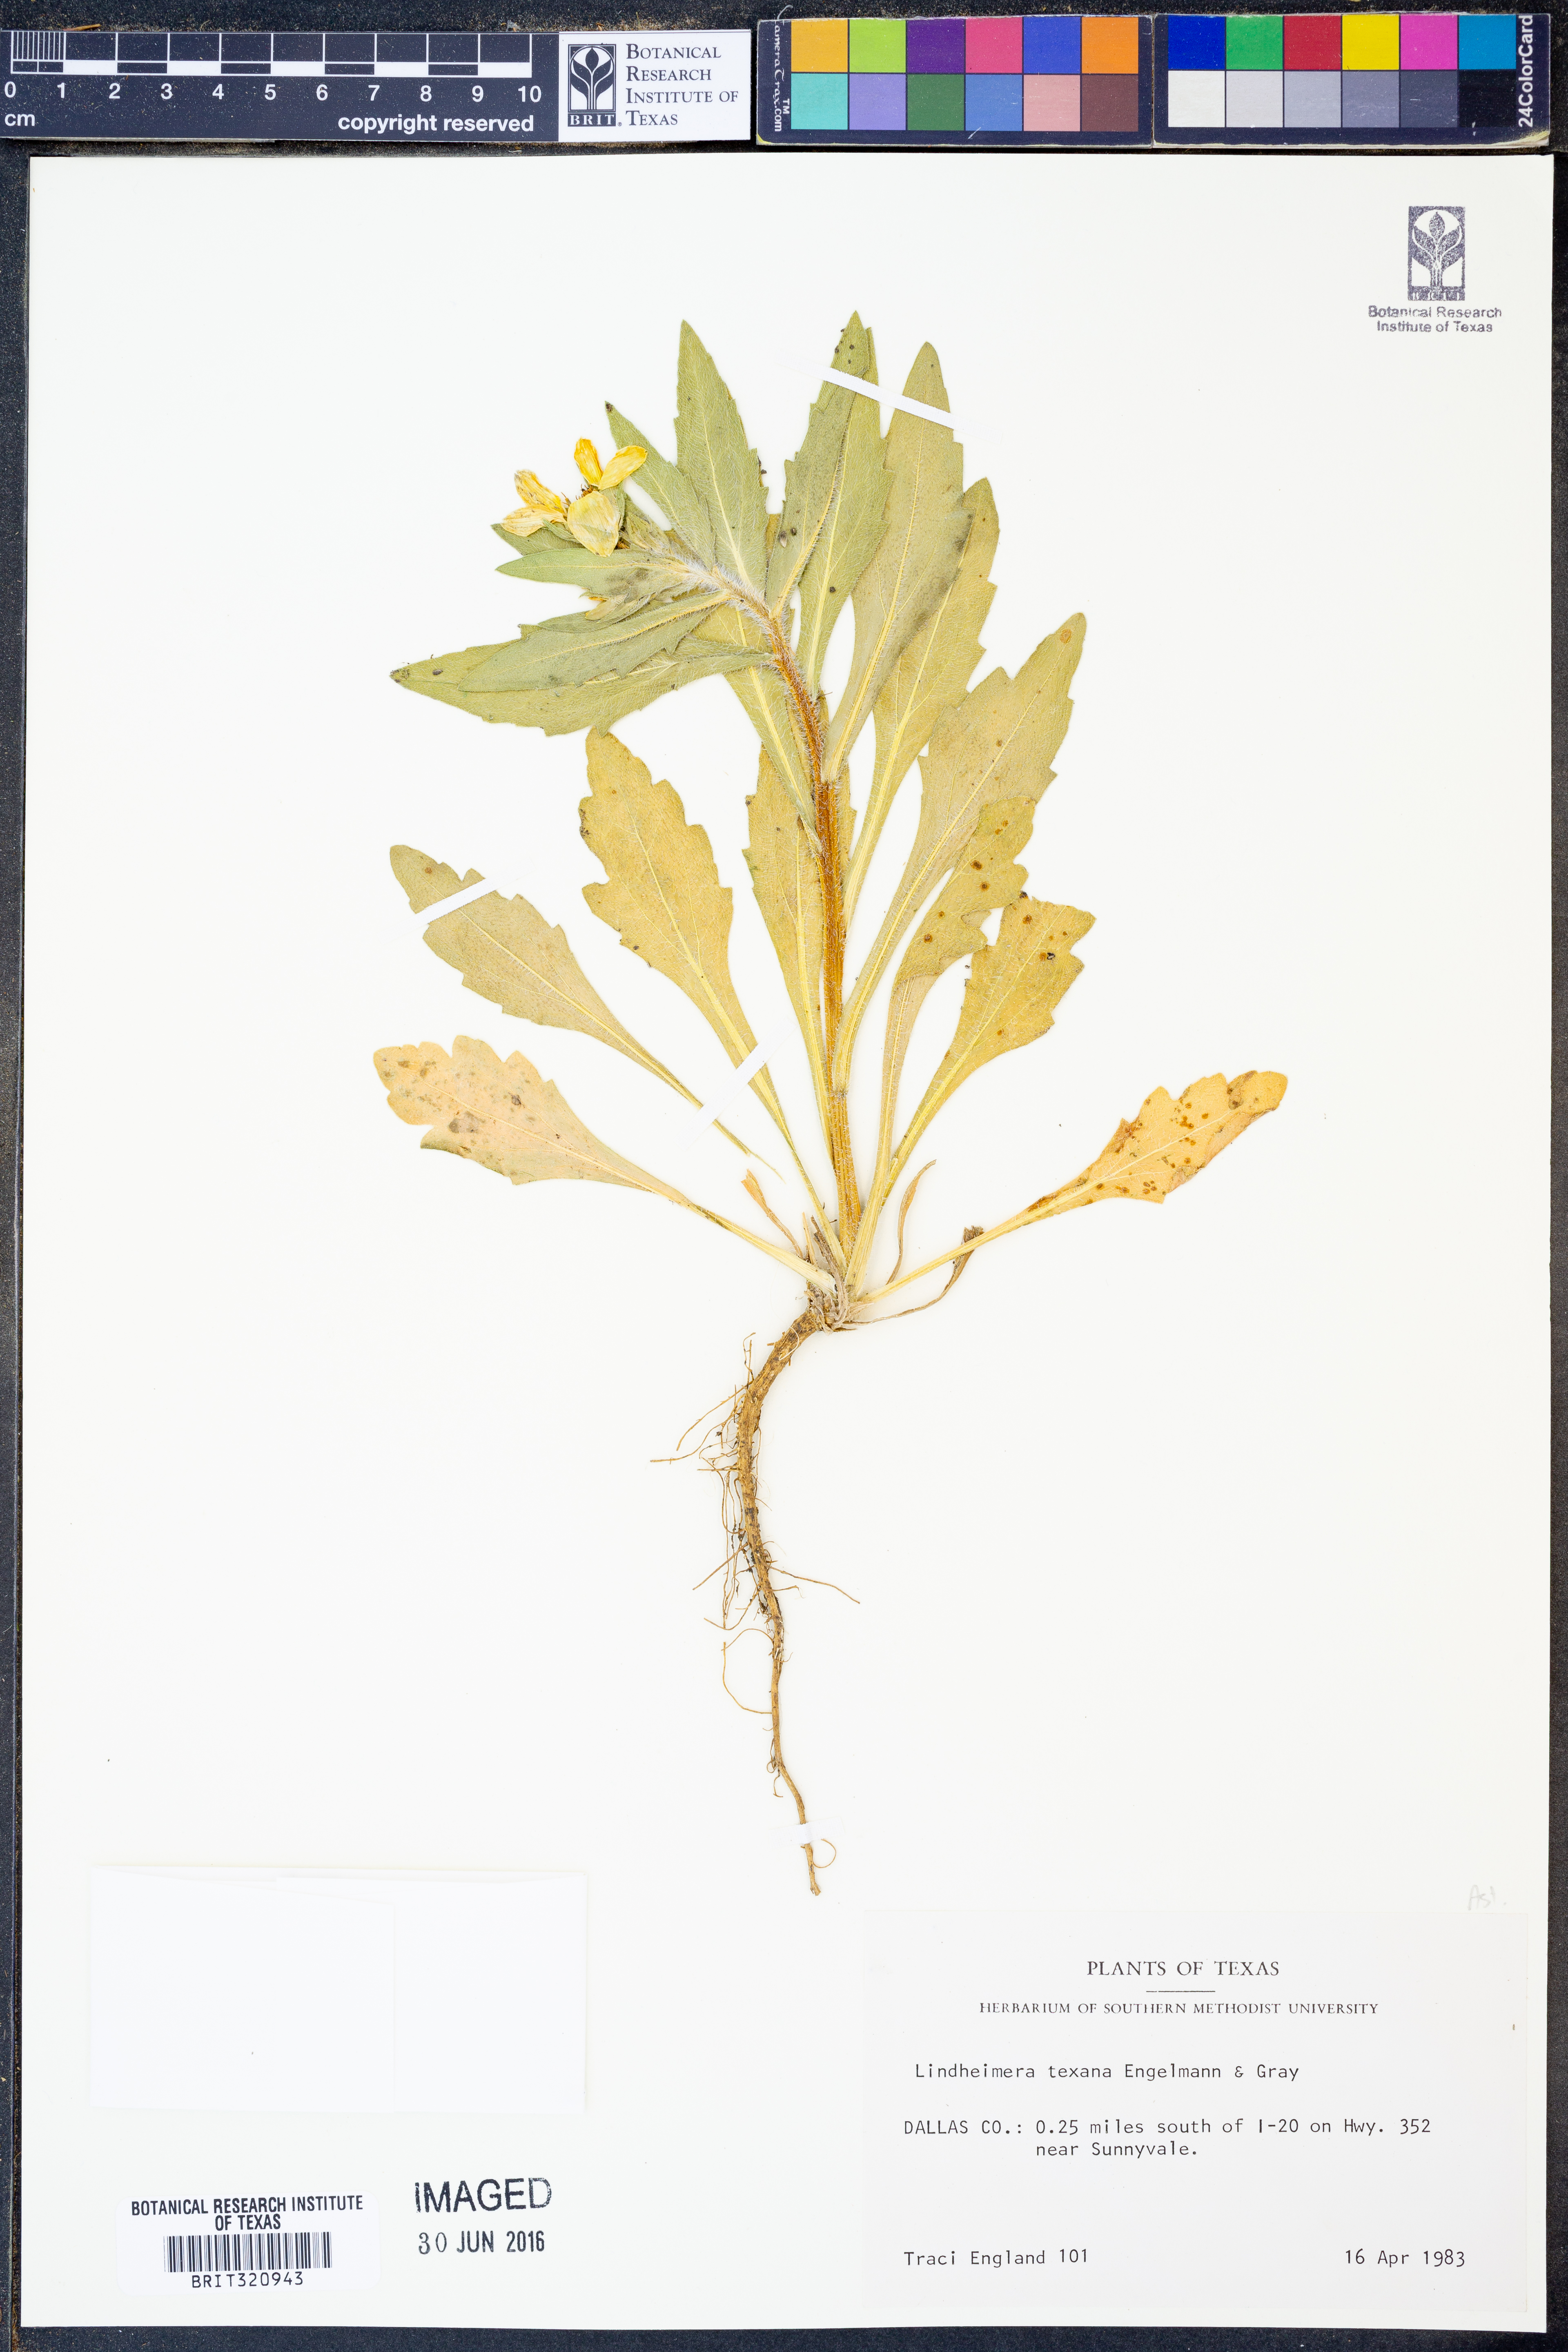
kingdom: Plantae
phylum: Tracheophyta
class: Magnoliopsida
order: Asterales
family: Asteraceae
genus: Lindheimera
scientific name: Lindheimera texana
